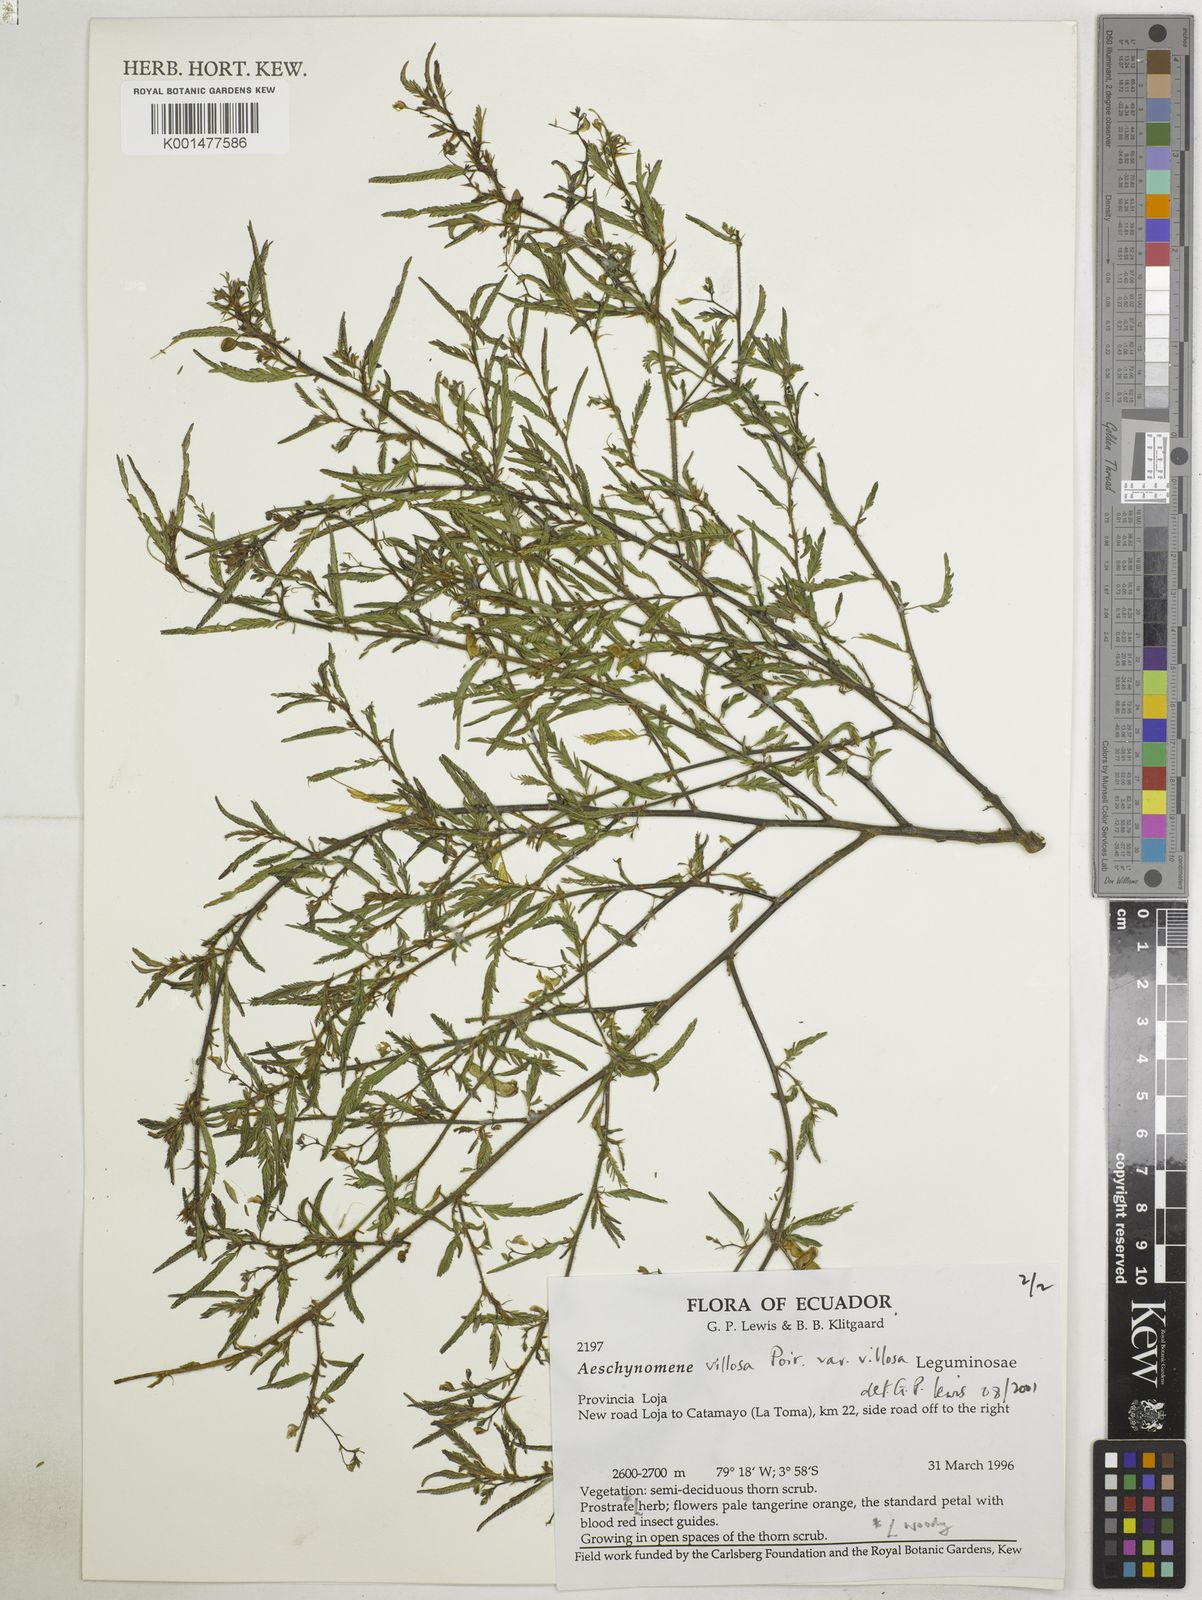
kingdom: Plantae
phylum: Tracheophyta
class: Magnoliopsida
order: Fabales
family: Fabaceae
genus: Aeschynomene
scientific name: Aeschynomene villosa
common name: Hairy-jointvetch
